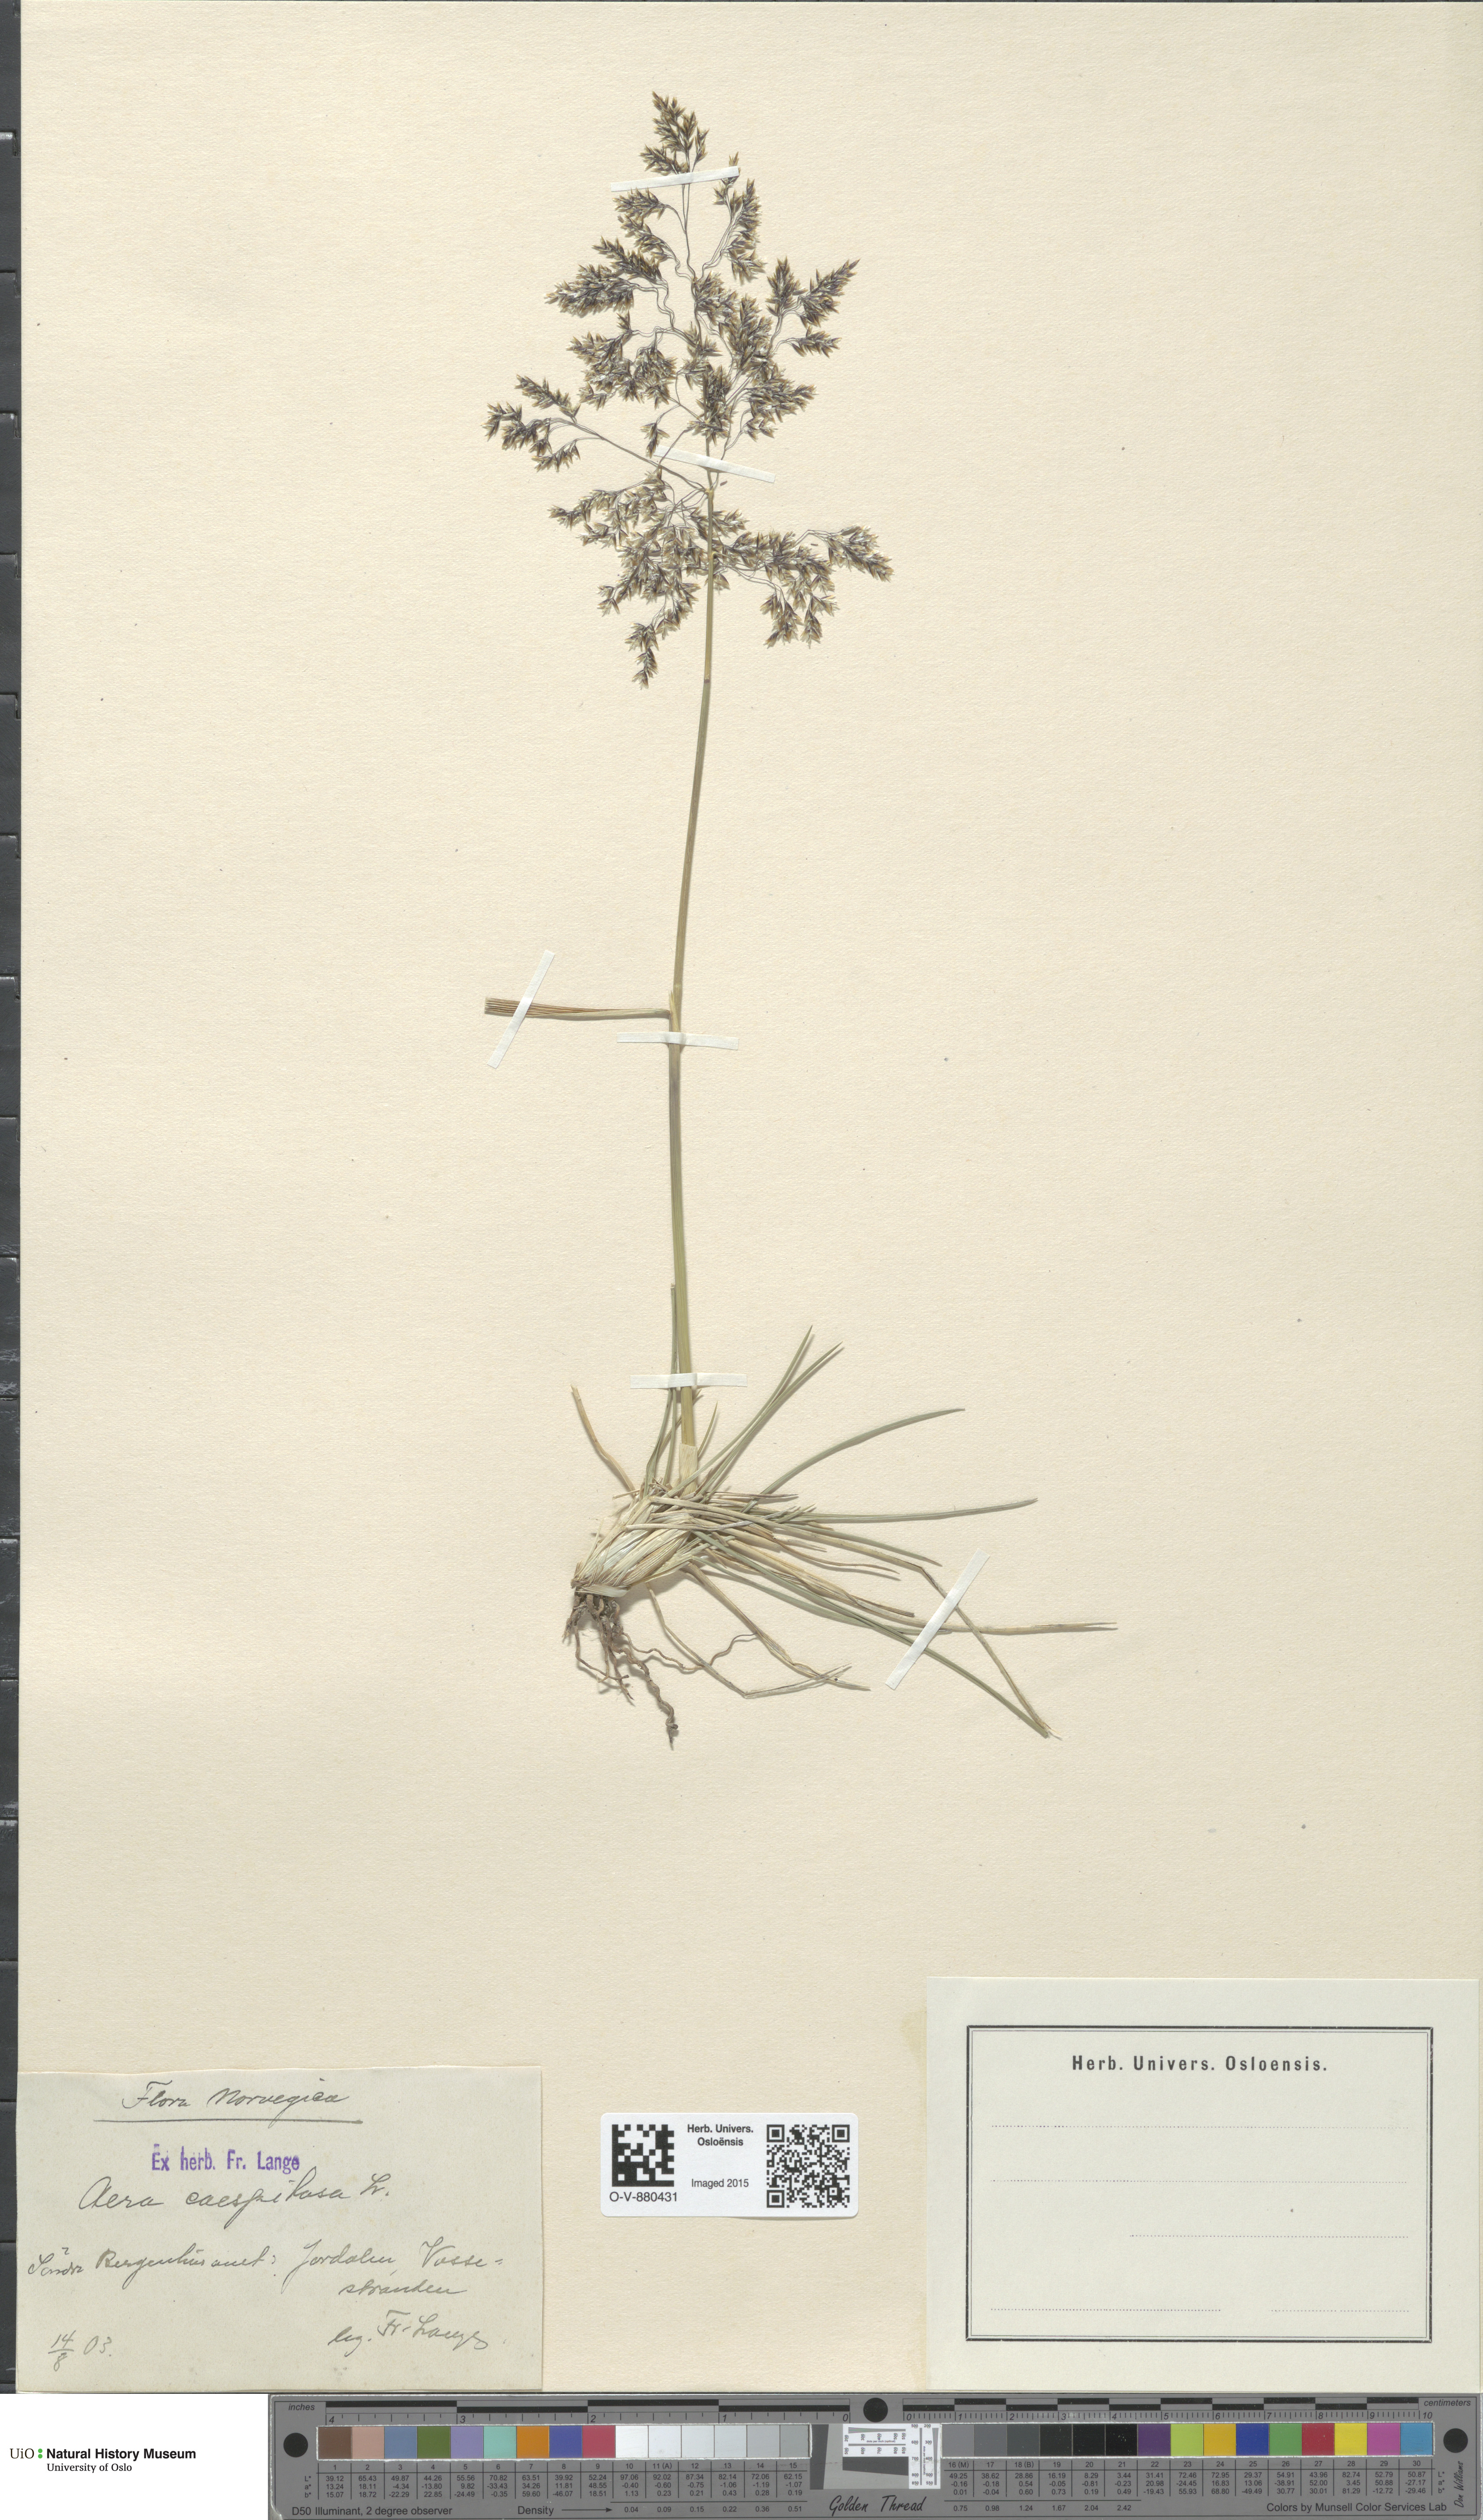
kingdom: Plantae
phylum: Tracheophyta
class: Liliopsida
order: Poales
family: Poaceae
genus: Deschampsia
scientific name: Deschampsia cespitosa
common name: Tufted hair-grass
